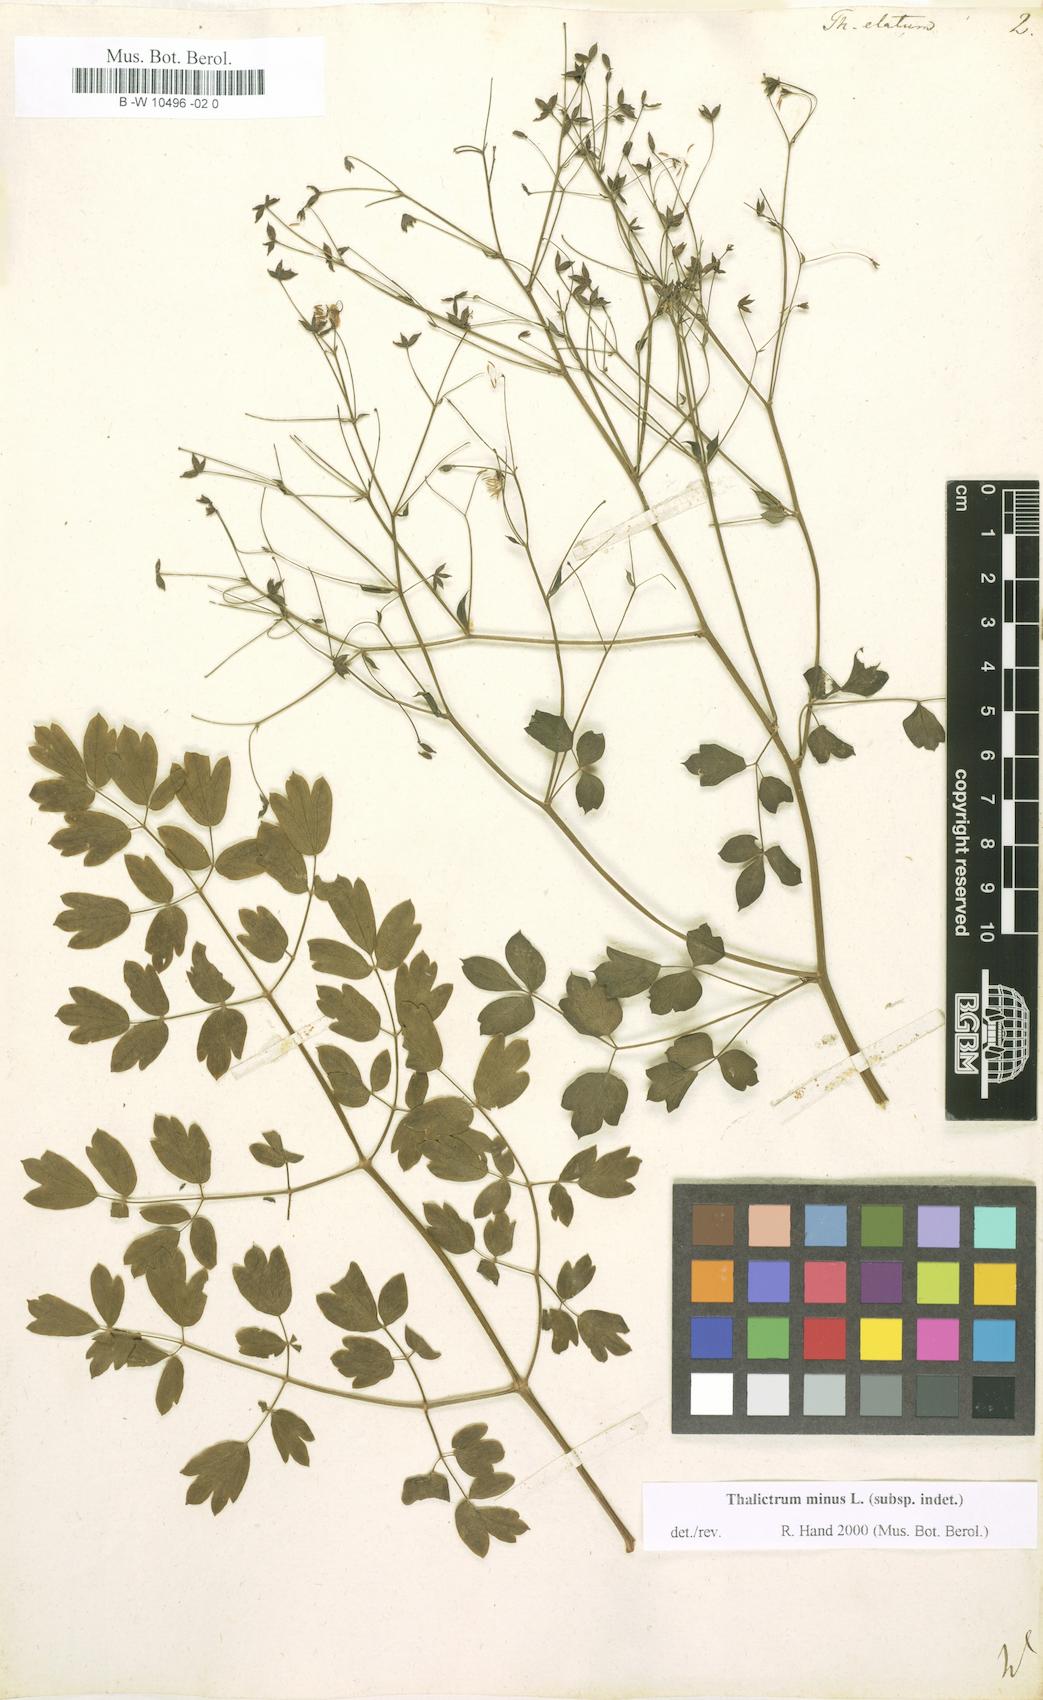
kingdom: Plantae
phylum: Tracheophyta
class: Magnoliopsida
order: Ranunculales
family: Ranunculaceae
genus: Thalictrum
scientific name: Thalictrum minus
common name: Lesser meadow-rue
